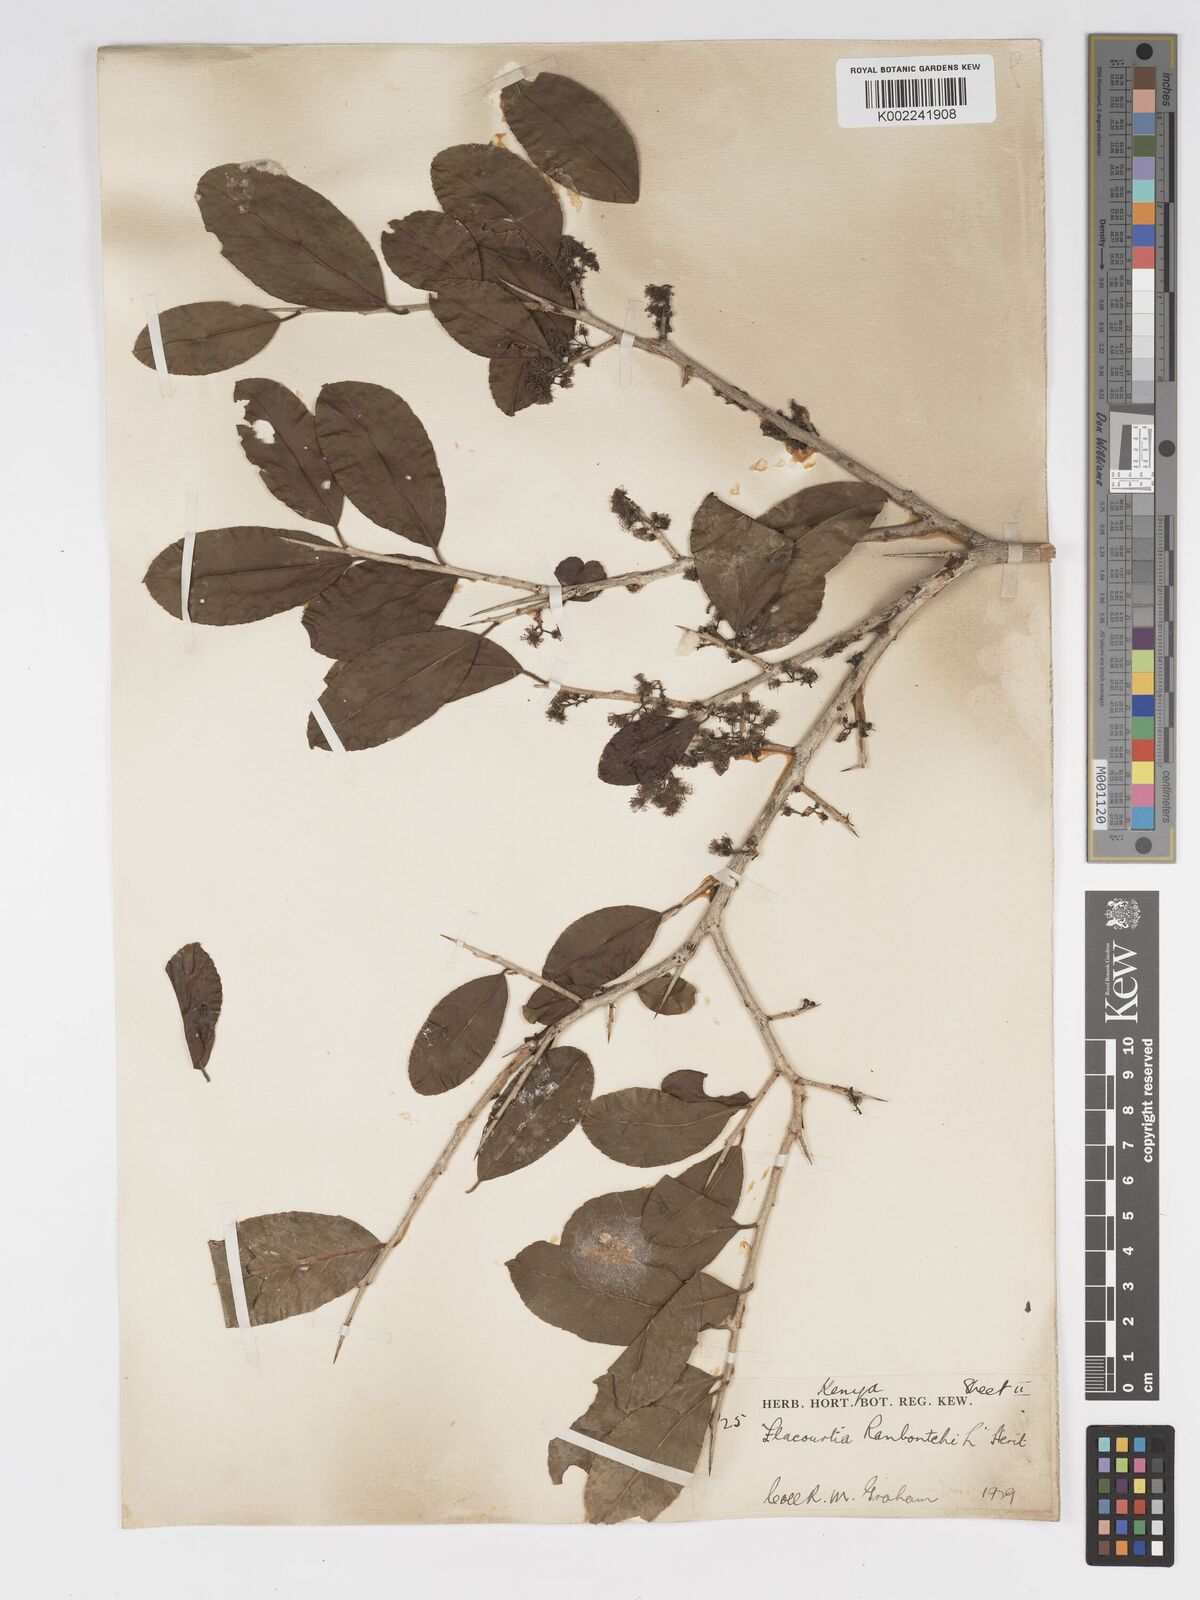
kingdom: Plantae
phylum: Tracheophyta
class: Magnoliopsida
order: Malpighiales
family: Salicaceae
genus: Flacourtia
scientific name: Flacourtia indica
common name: Governor's plum
